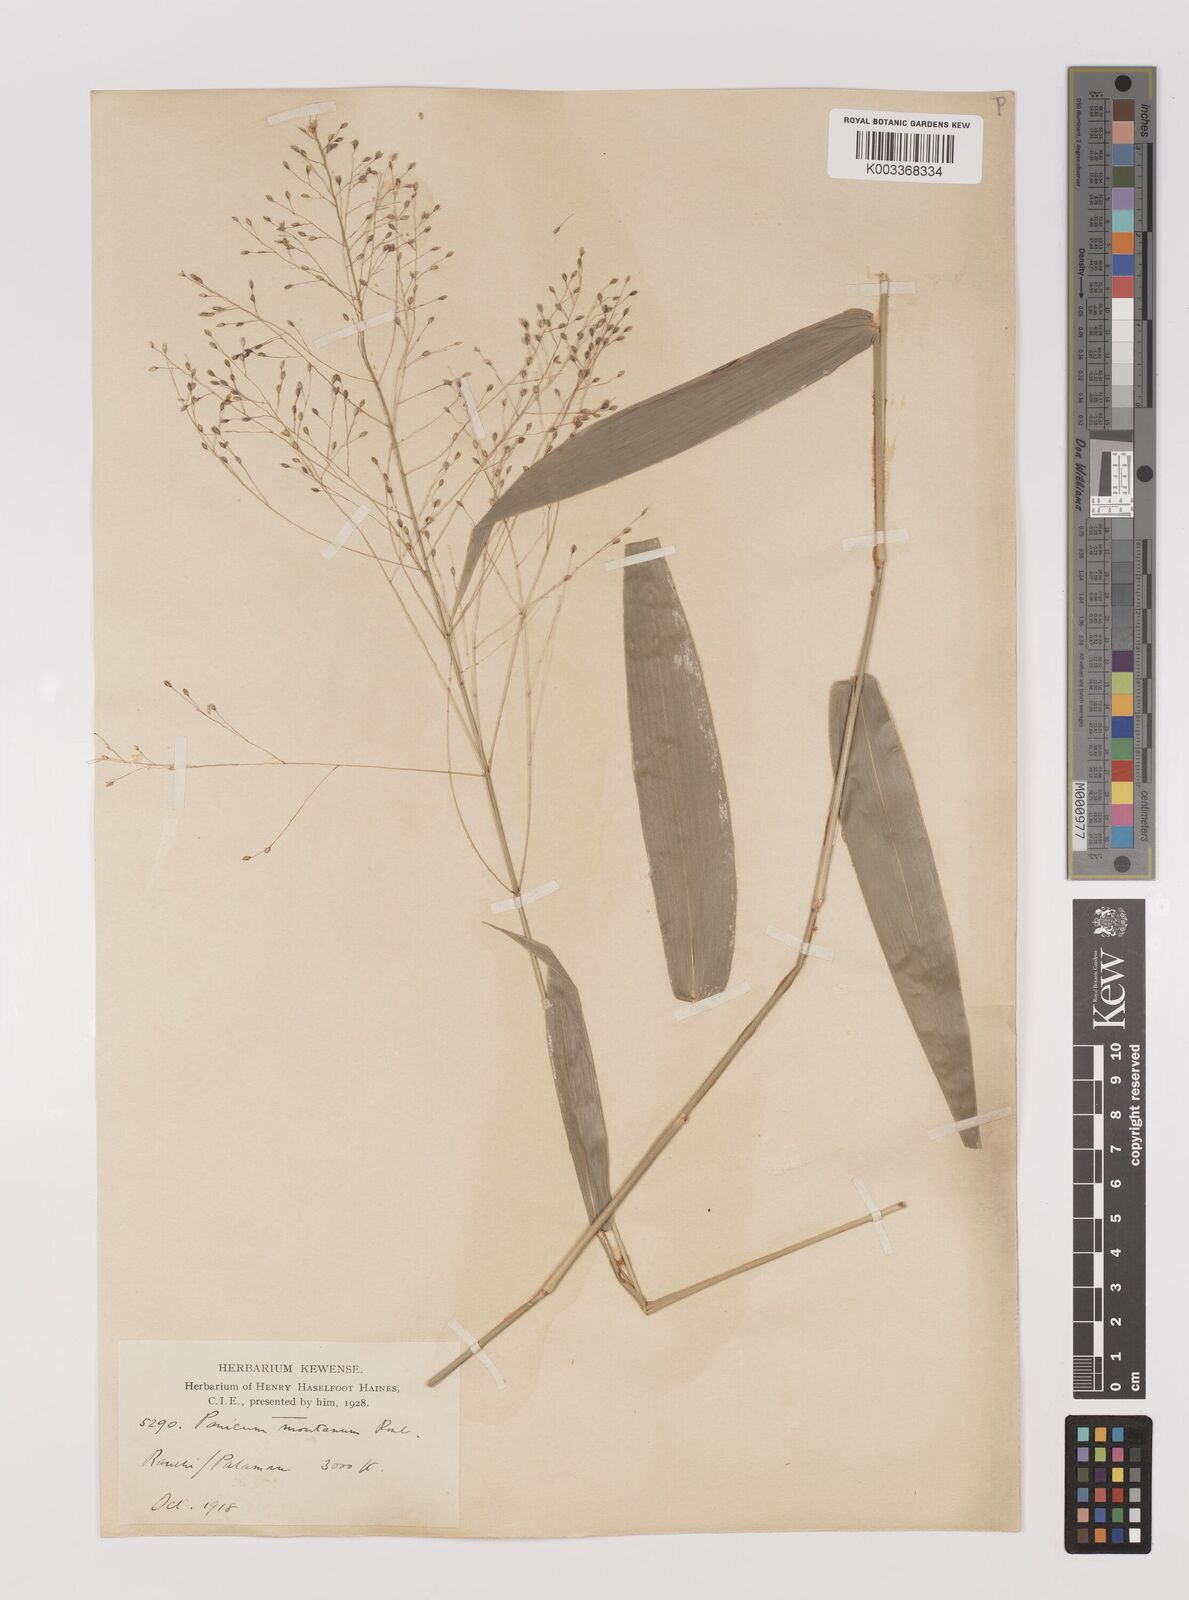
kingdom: Plantae
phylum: Tracheophyta
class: Liliopsida
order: Poales
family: Poaceae
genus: Panicum
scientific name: Panicum notatum
